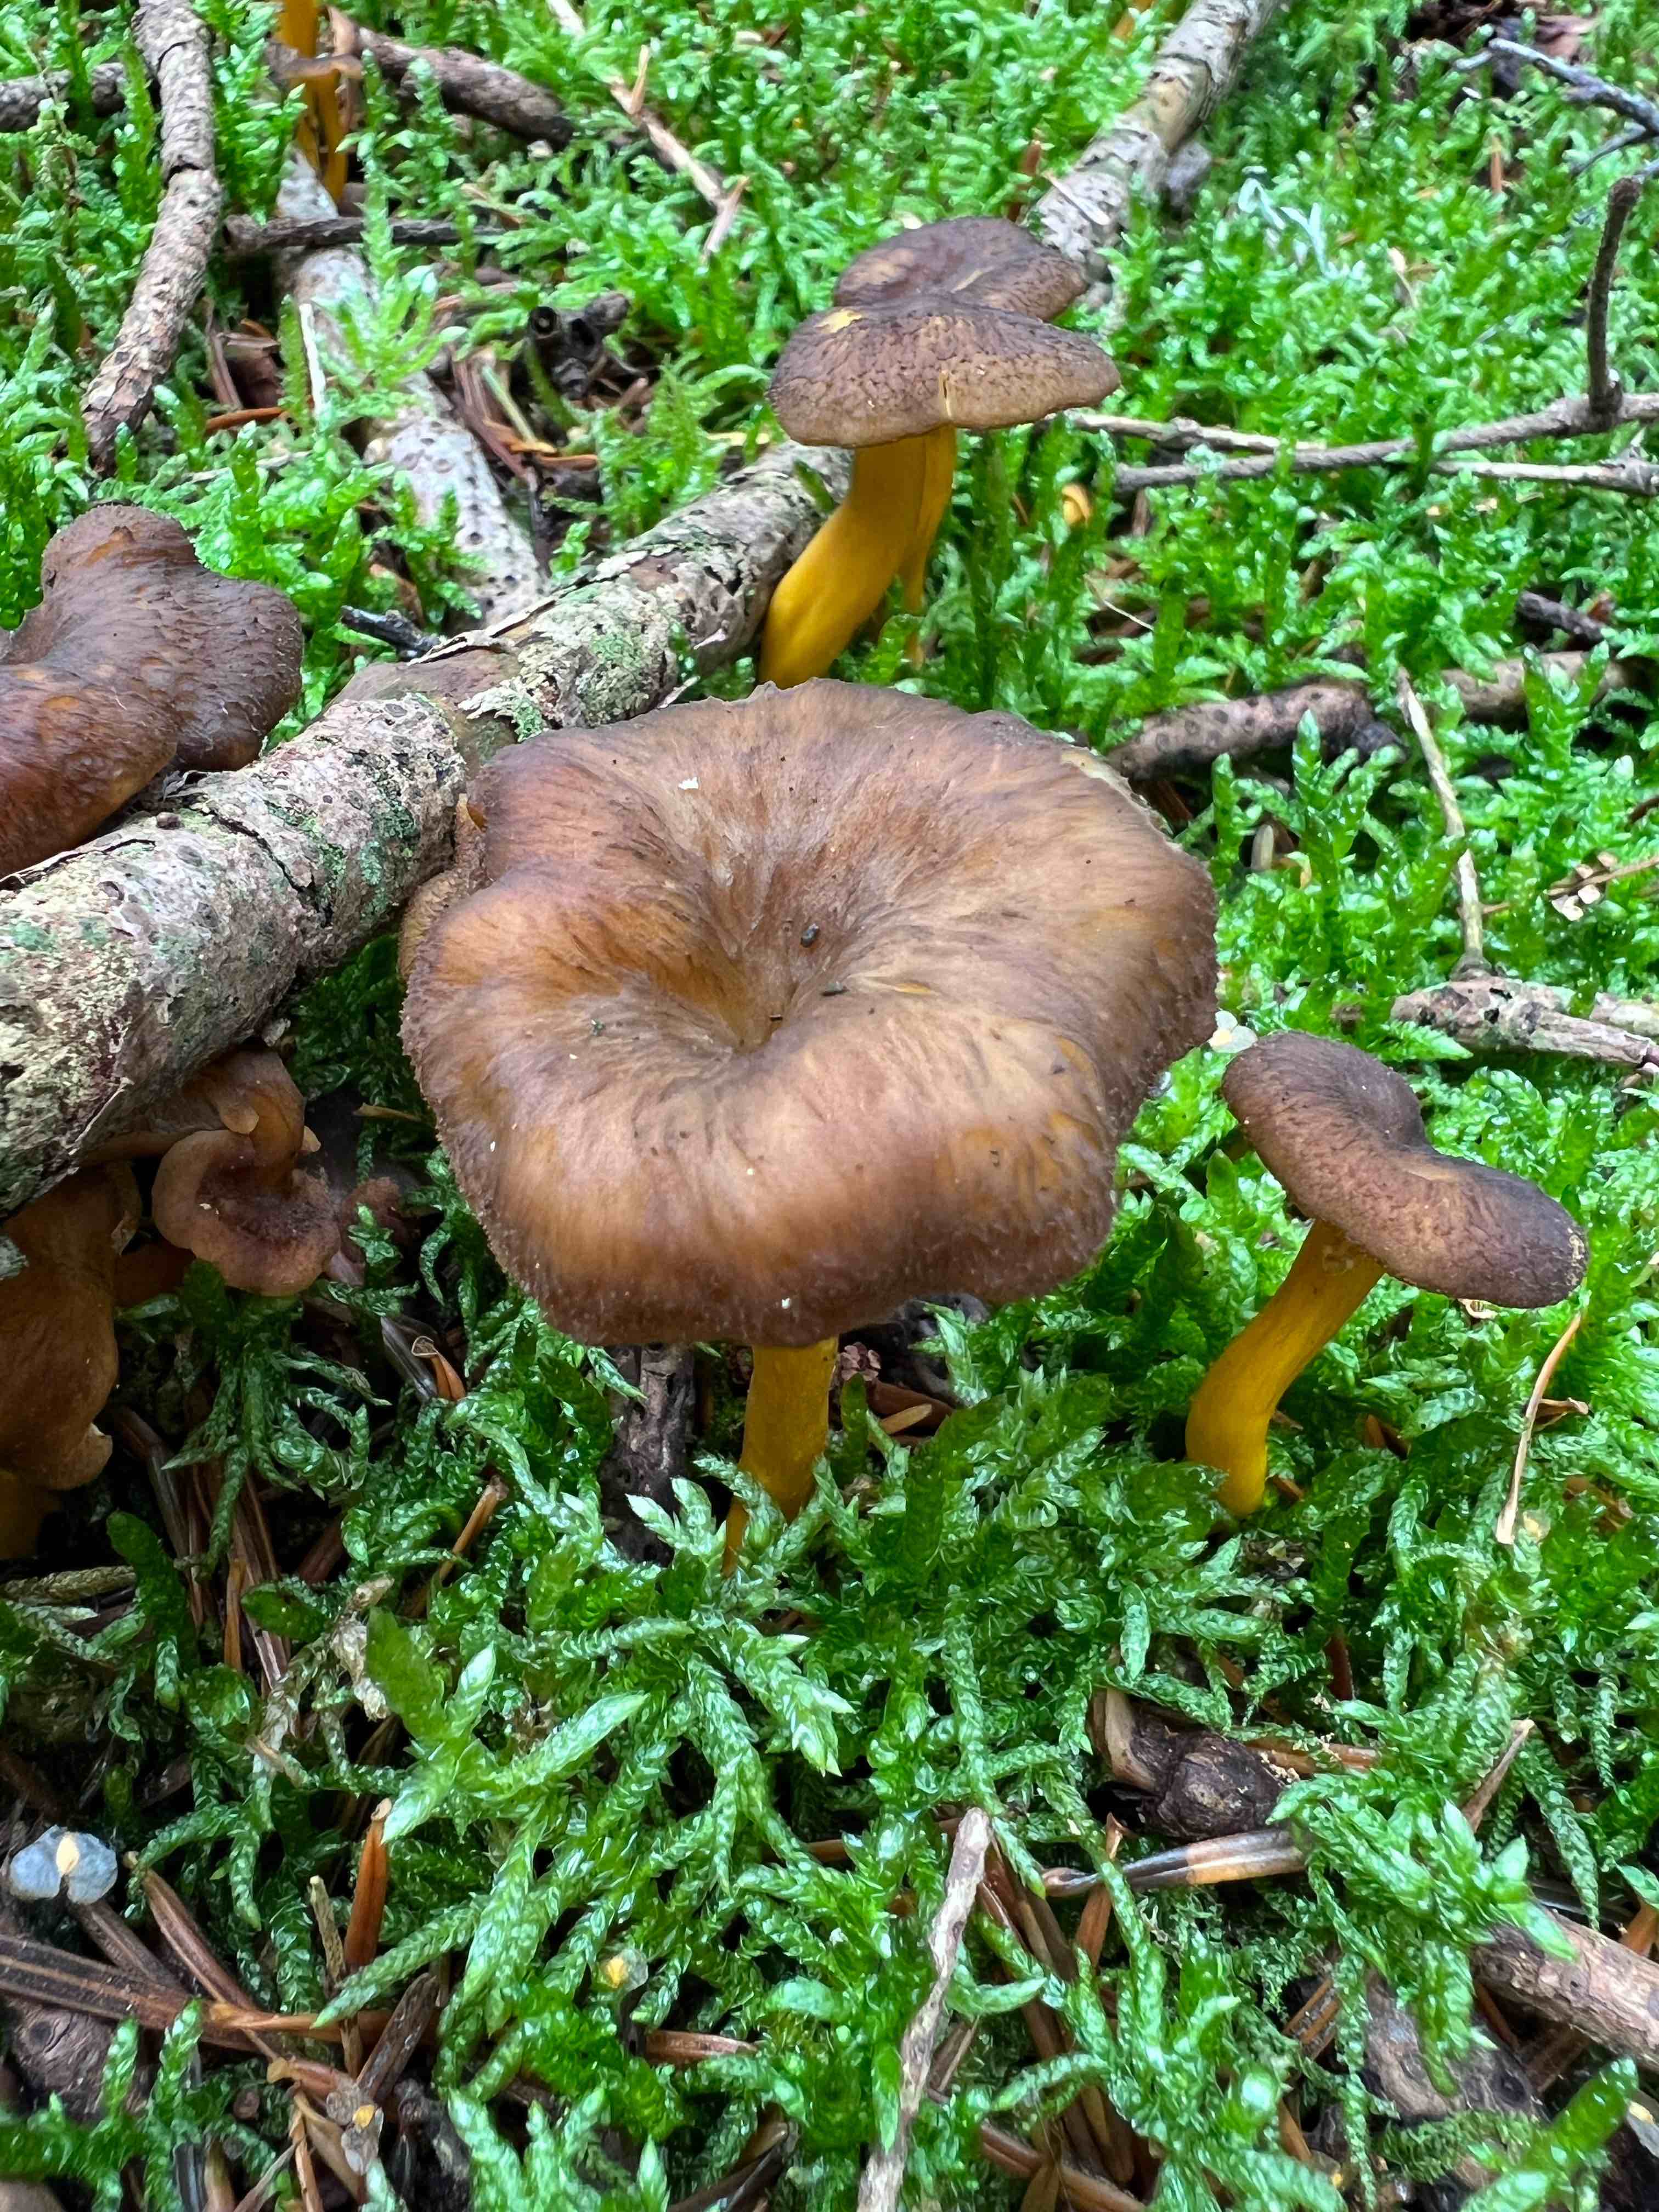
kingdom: Fungi
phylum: Basidiomycota
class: Agaricomycetes
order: Cantharellales
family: Hydnaceae
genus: Craterellus
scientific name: Craterellus tubaeformis
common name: tragt-kantarel
